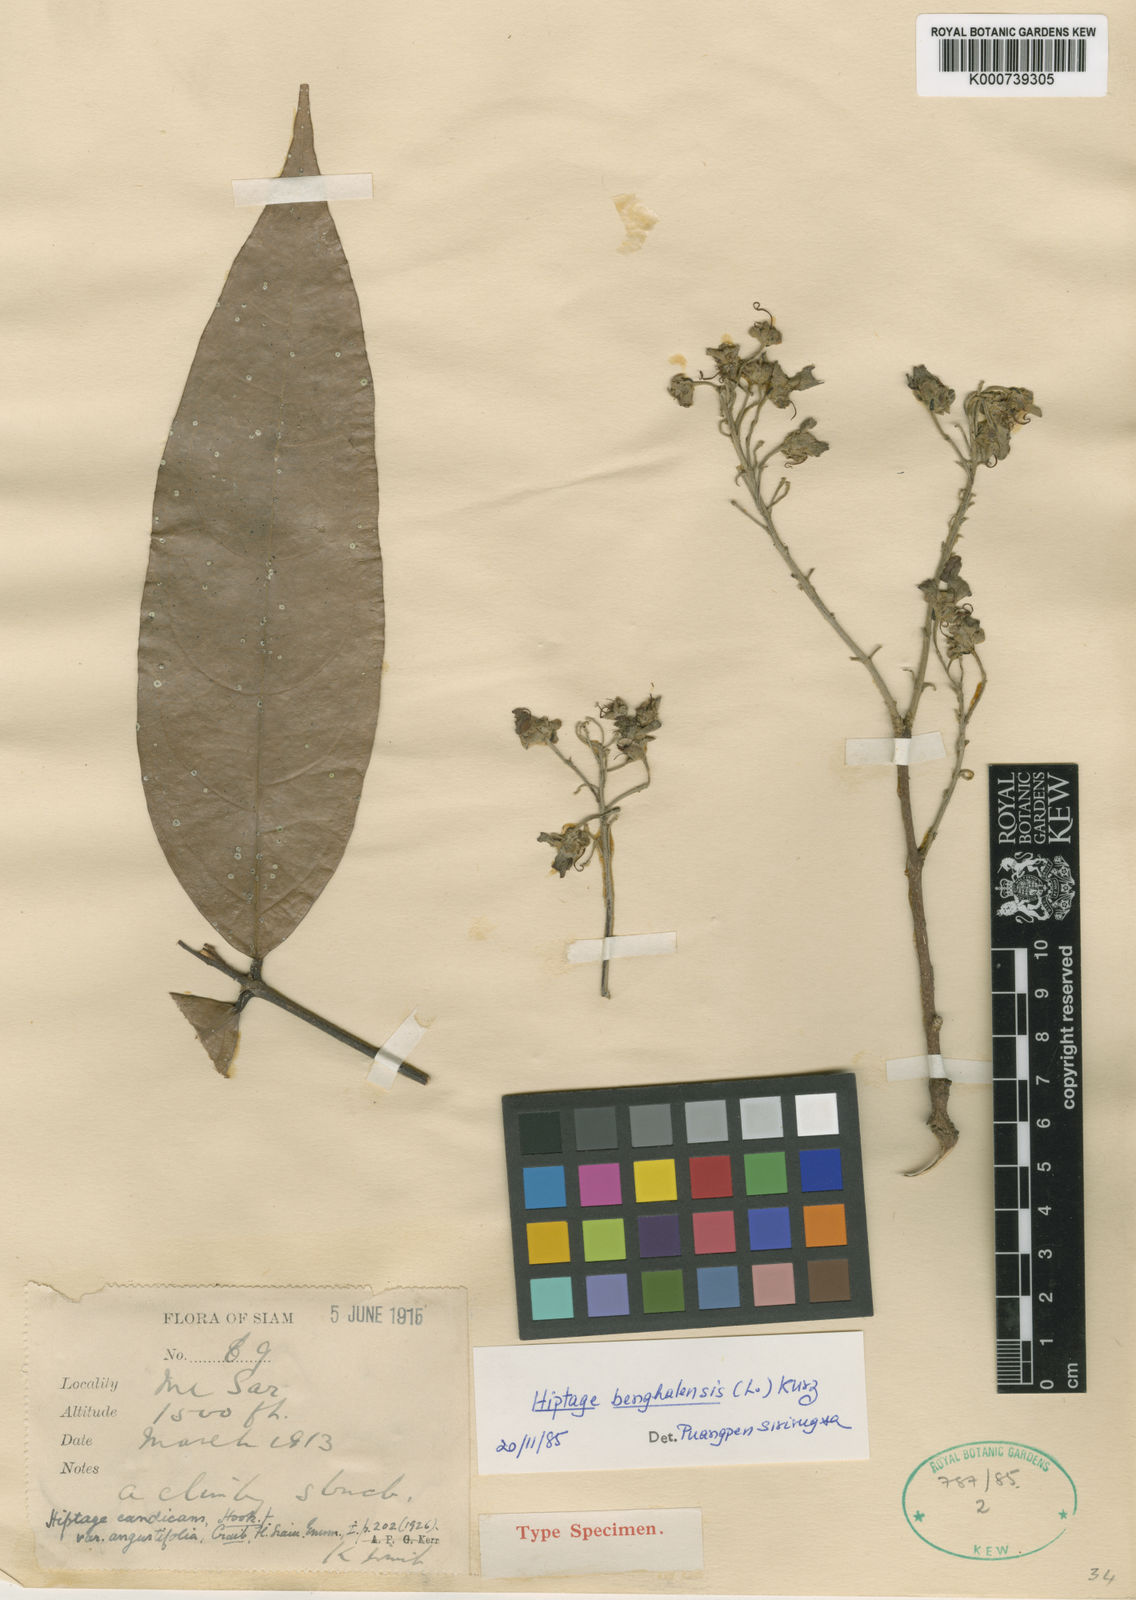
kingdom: Plantae
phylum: Tracheophyta
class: Magnoliopsida
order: Malpighiales
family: Malpighiaceae
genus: Hiptage
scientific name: Hiptage benghalensis
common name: Hiptage
